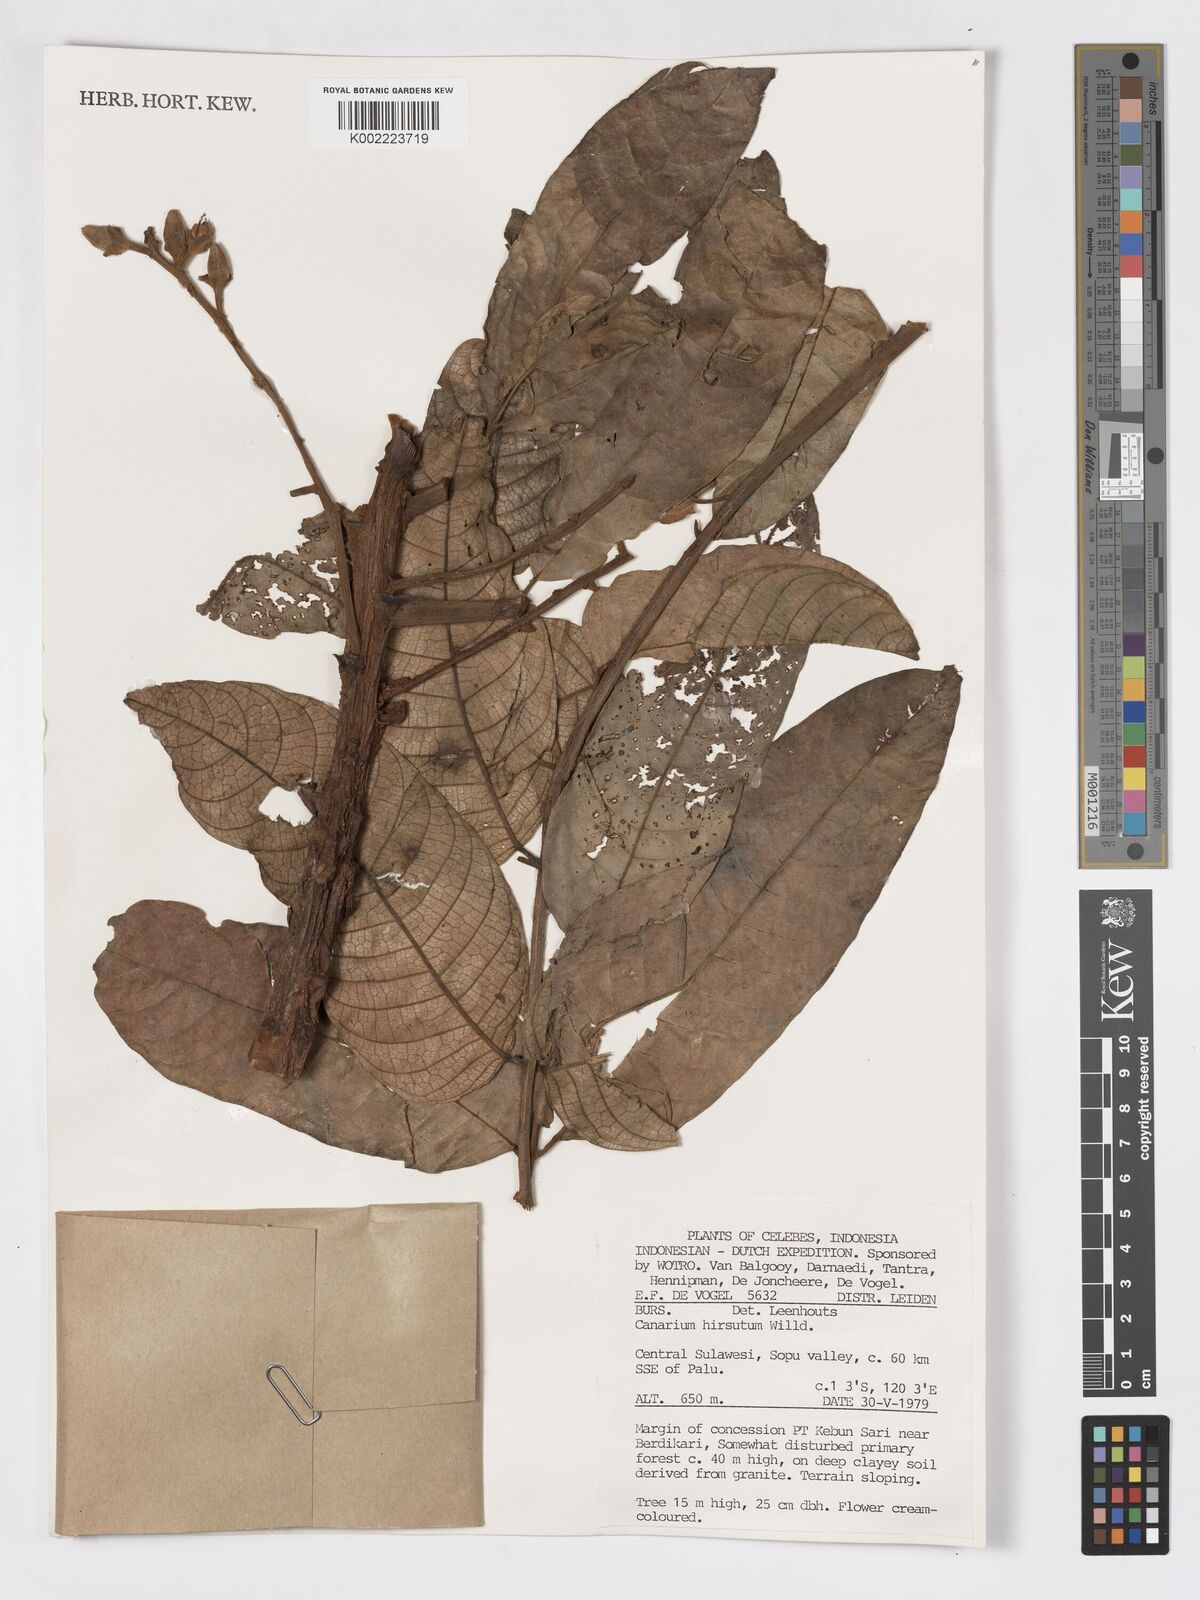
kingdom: Plantae
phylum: Tracheophyta
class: Magnoliopsida
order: Sapindales
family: Burseraceae
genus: Canarium
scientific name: Canarium hirsutum
